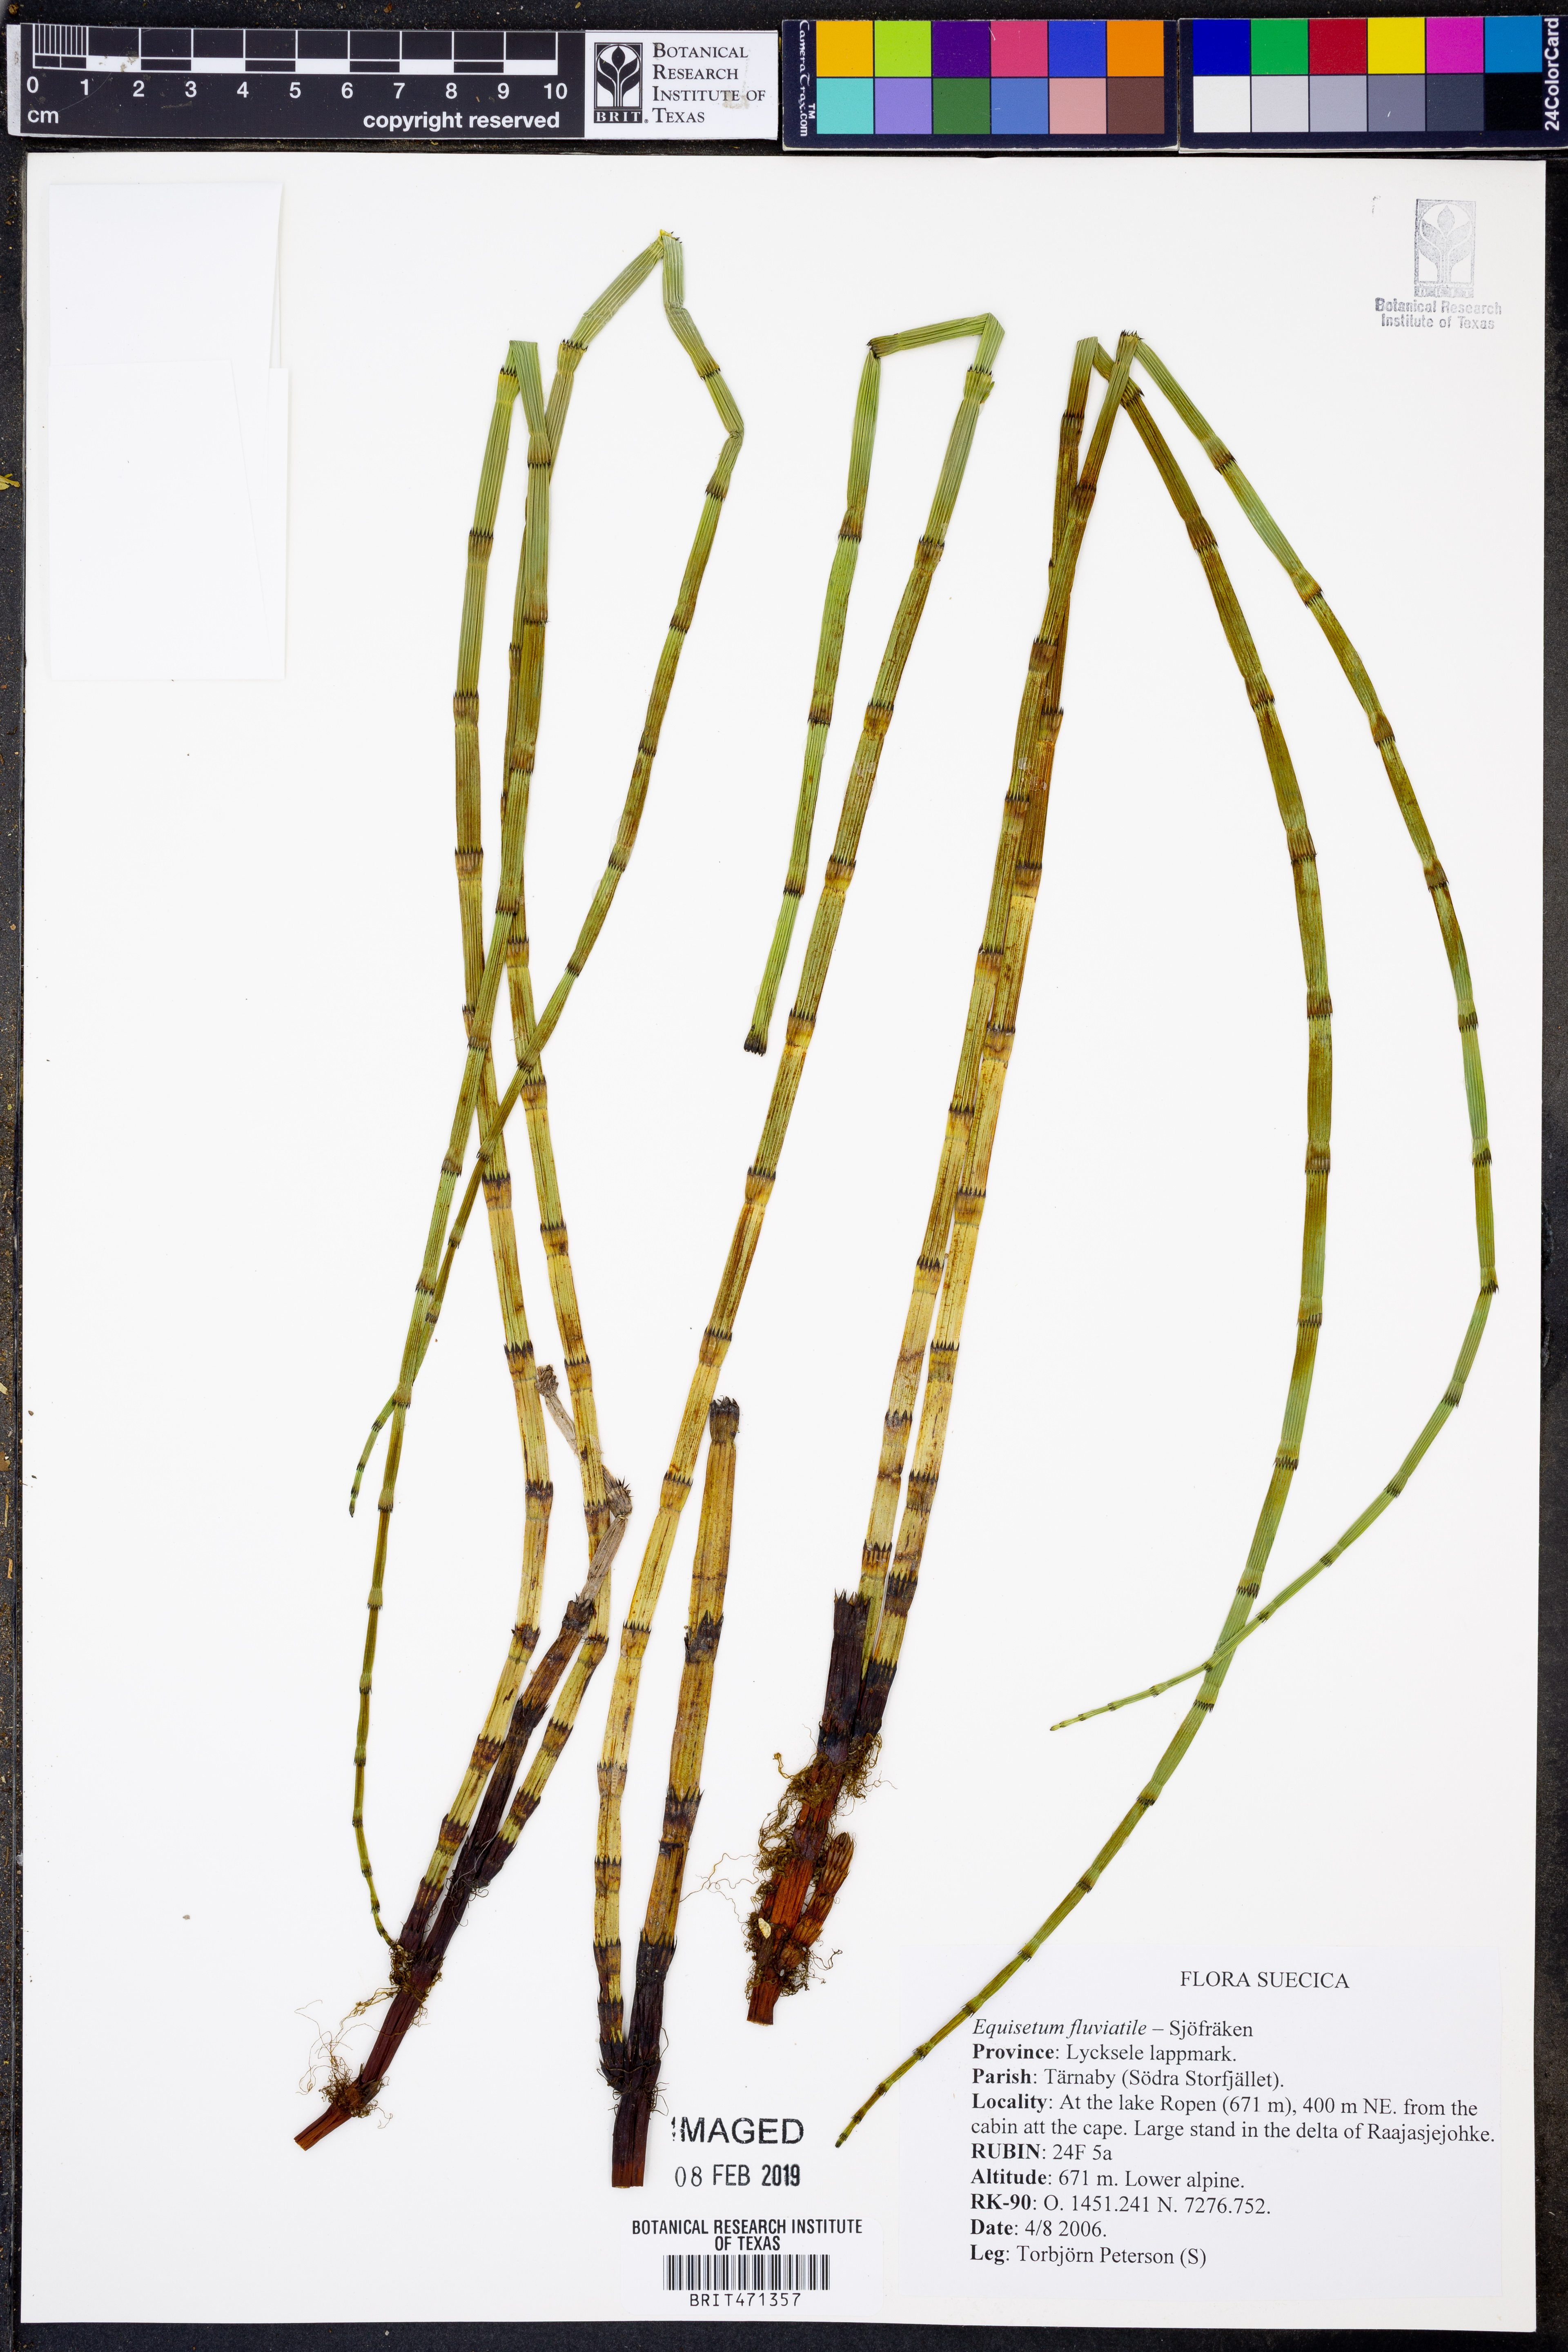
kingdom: Plantae
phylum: Tracheophyta
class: Polypodiopsida
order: Equisetales
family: Equisetaceae
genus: Equisetum
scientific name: Equisetum fluviatile
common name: Water horsetail
